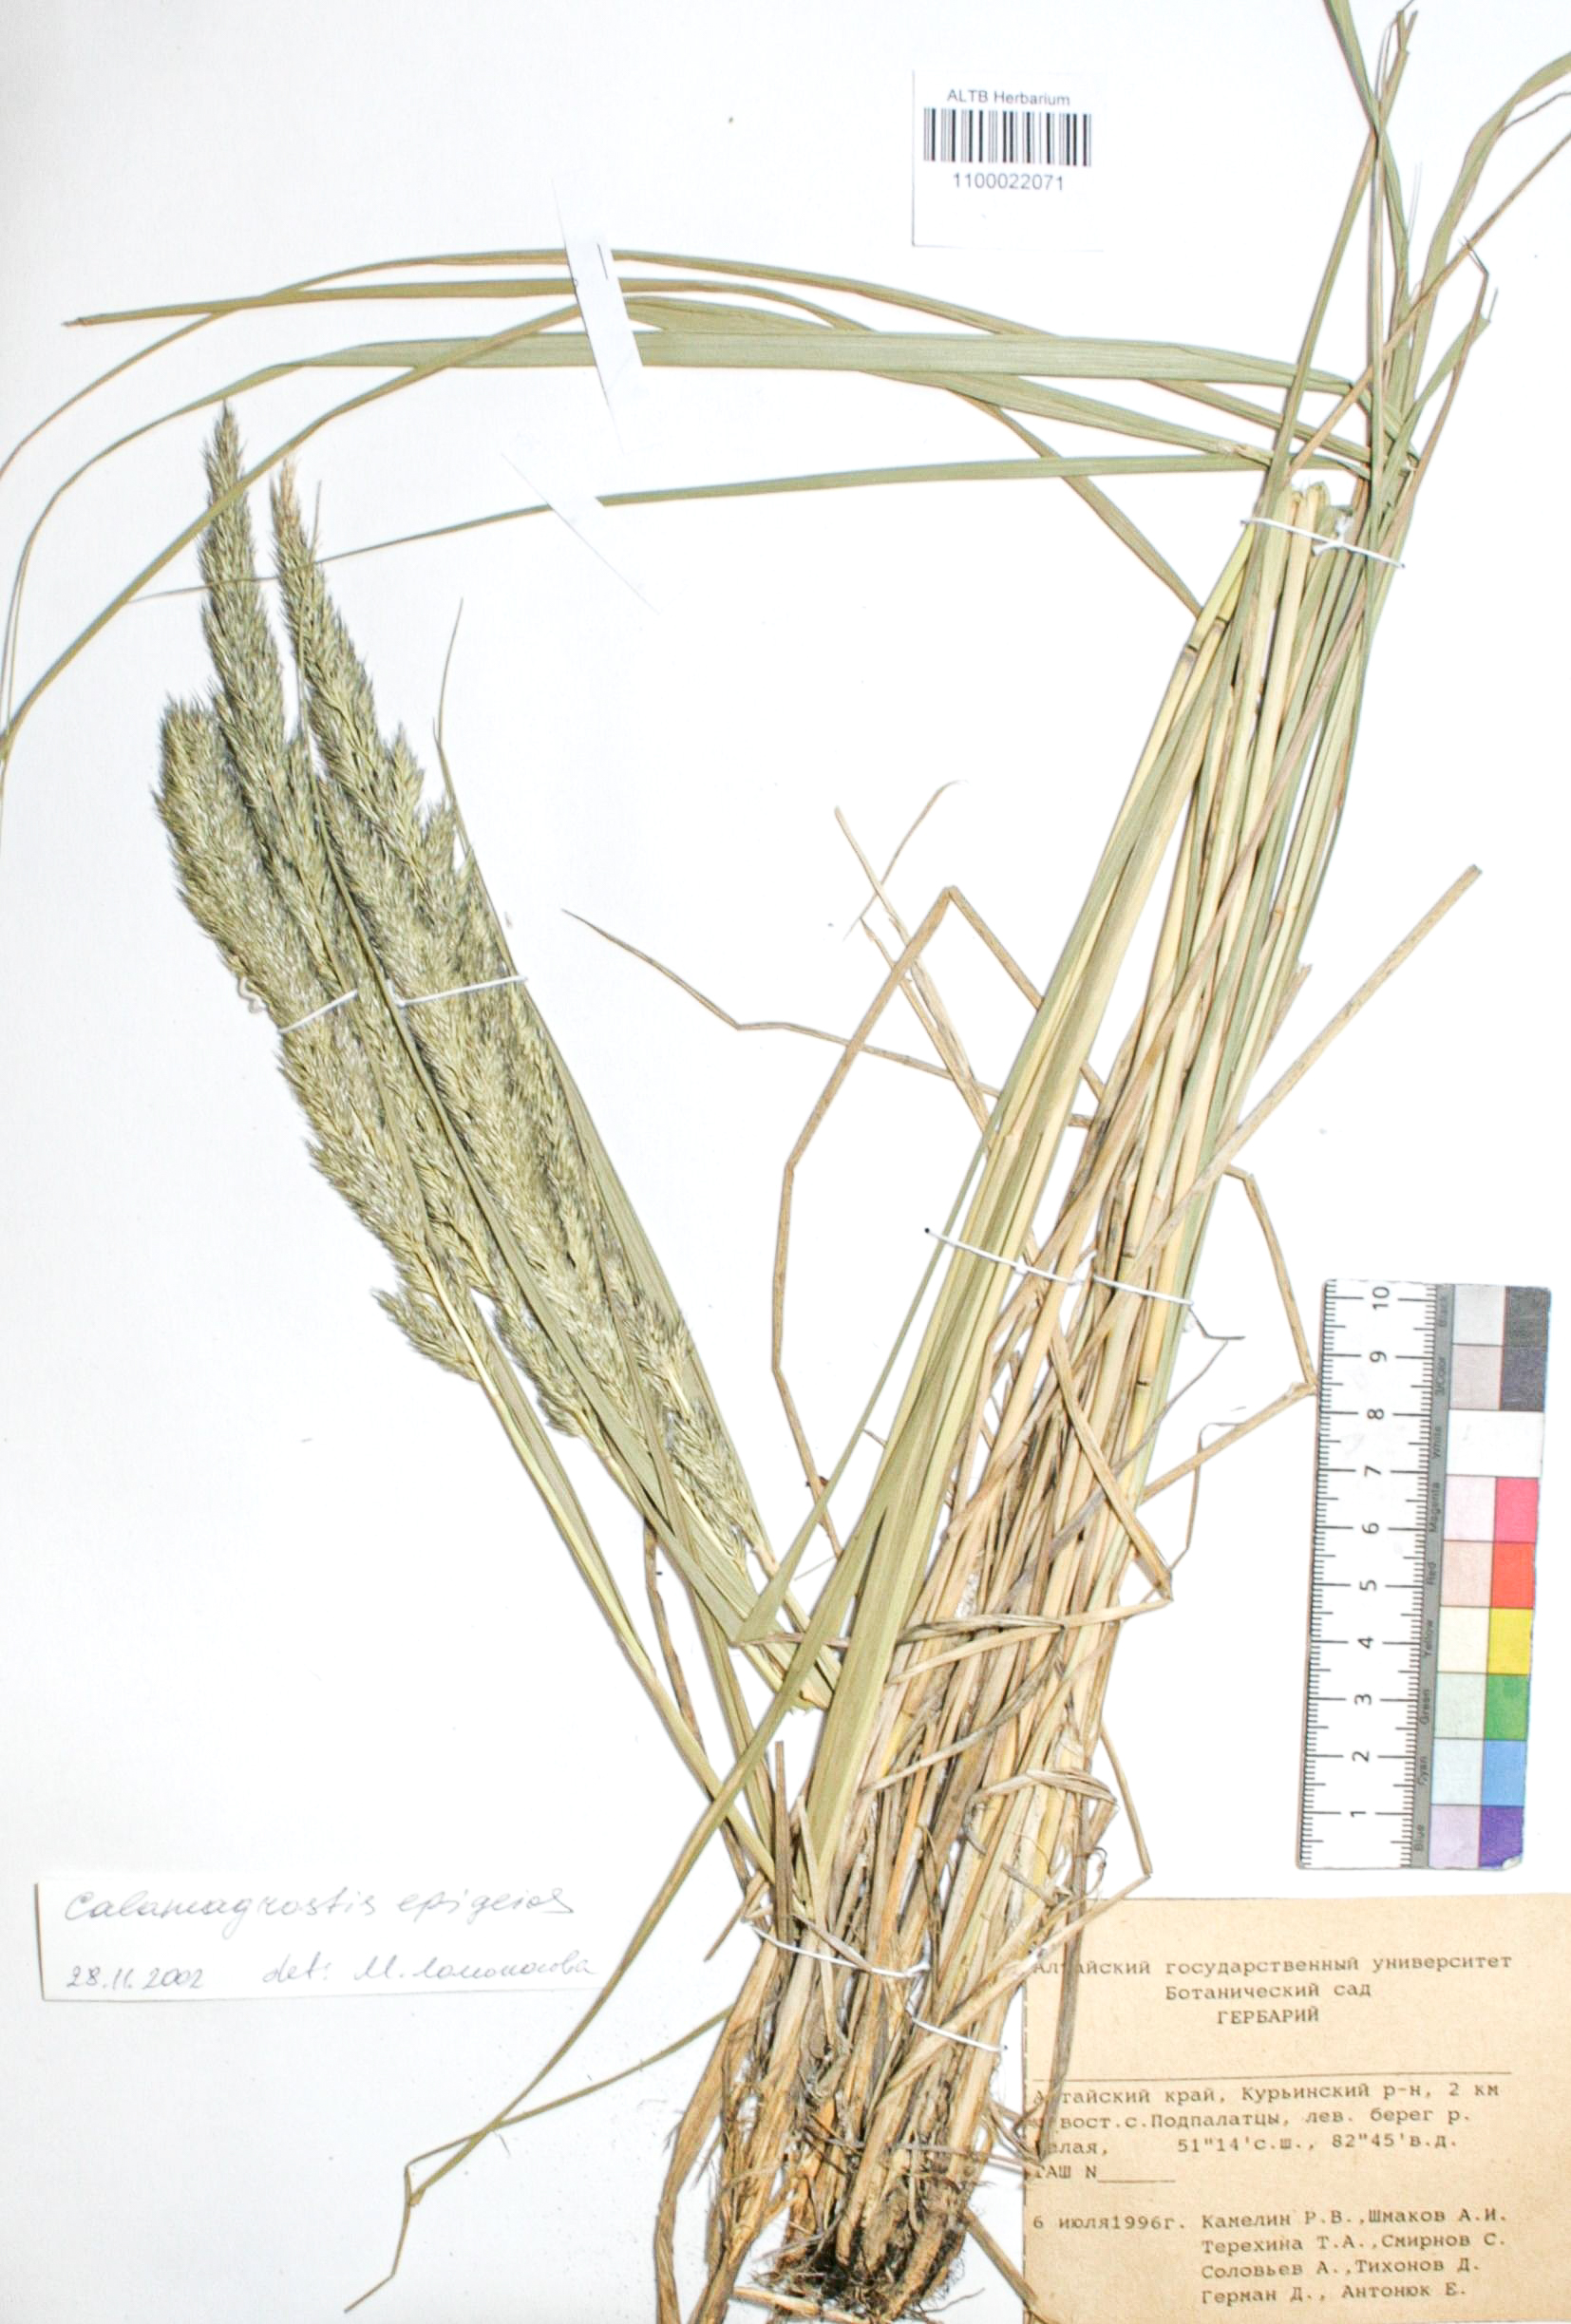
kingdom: Plantae
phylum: Tracheophyta
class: Liliopsida
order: Poales
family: Poaceae
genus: Calamagrostis
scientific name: Calamagrostis epigejos
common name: Wood small-reed
